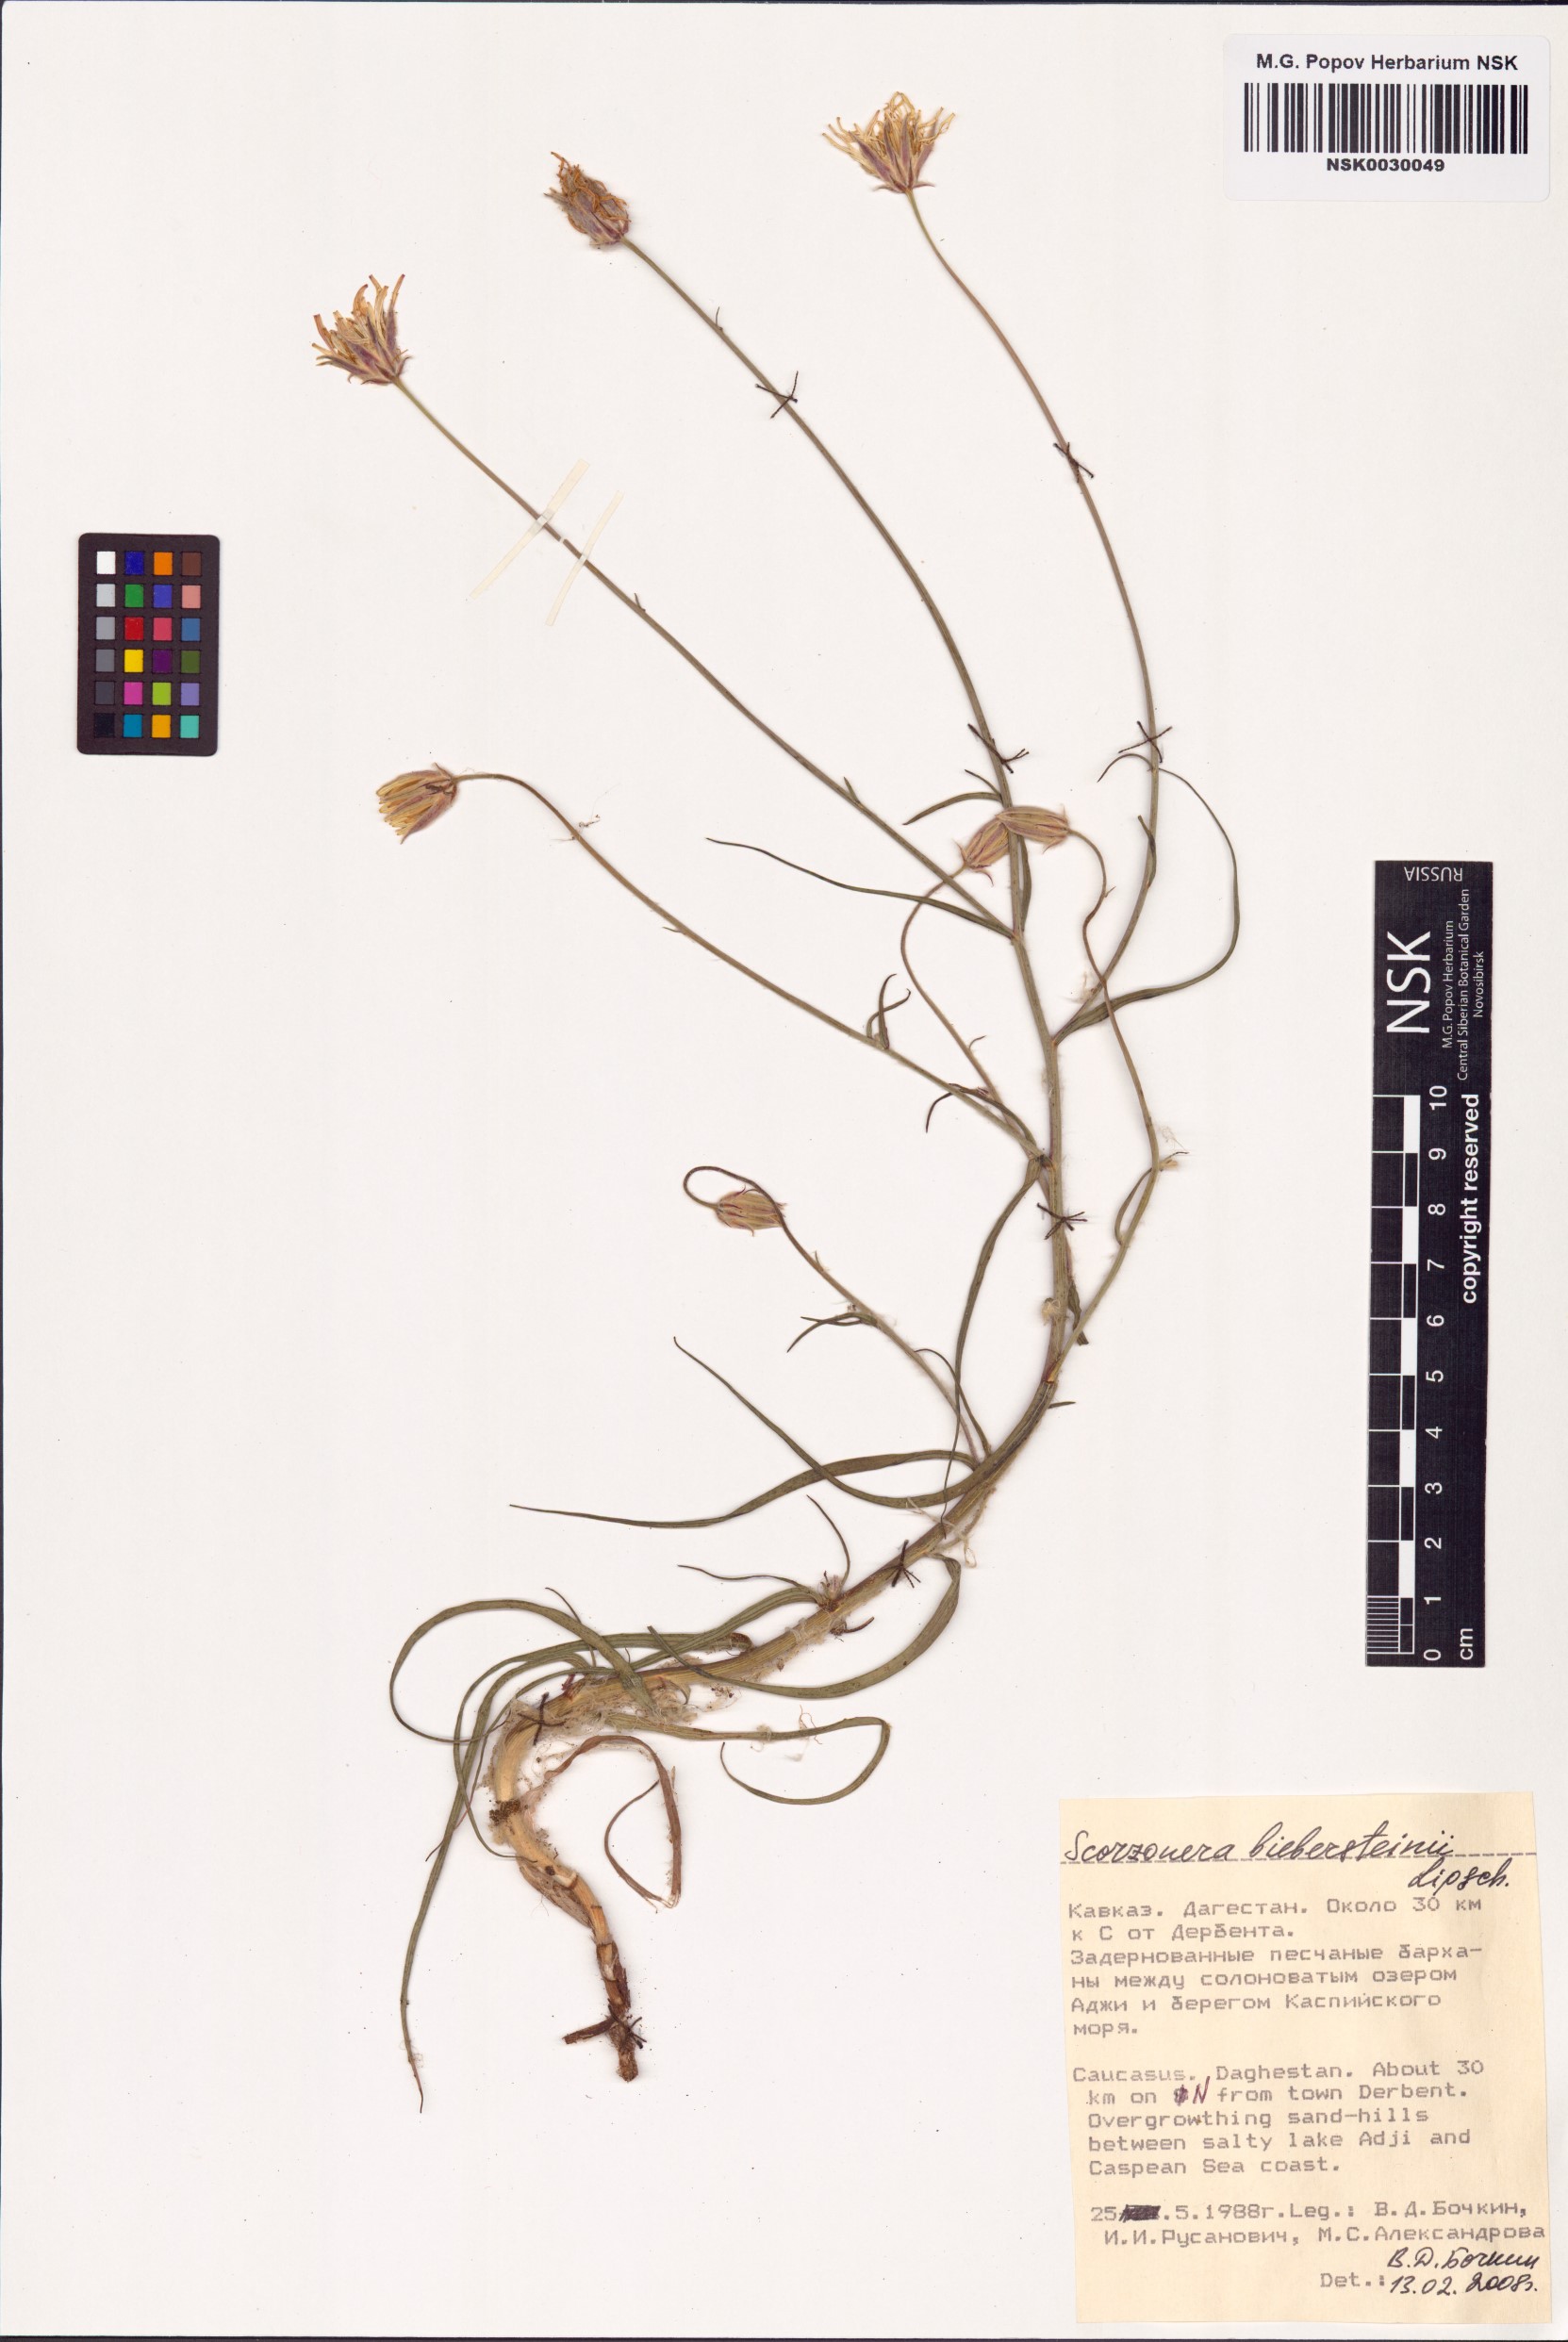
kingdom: Plantae
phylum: Tracheophyta
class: Magnoliopsida
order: Asterales
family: Asteraceae
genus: Gelasia
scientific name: Gelasia biebersteinii
